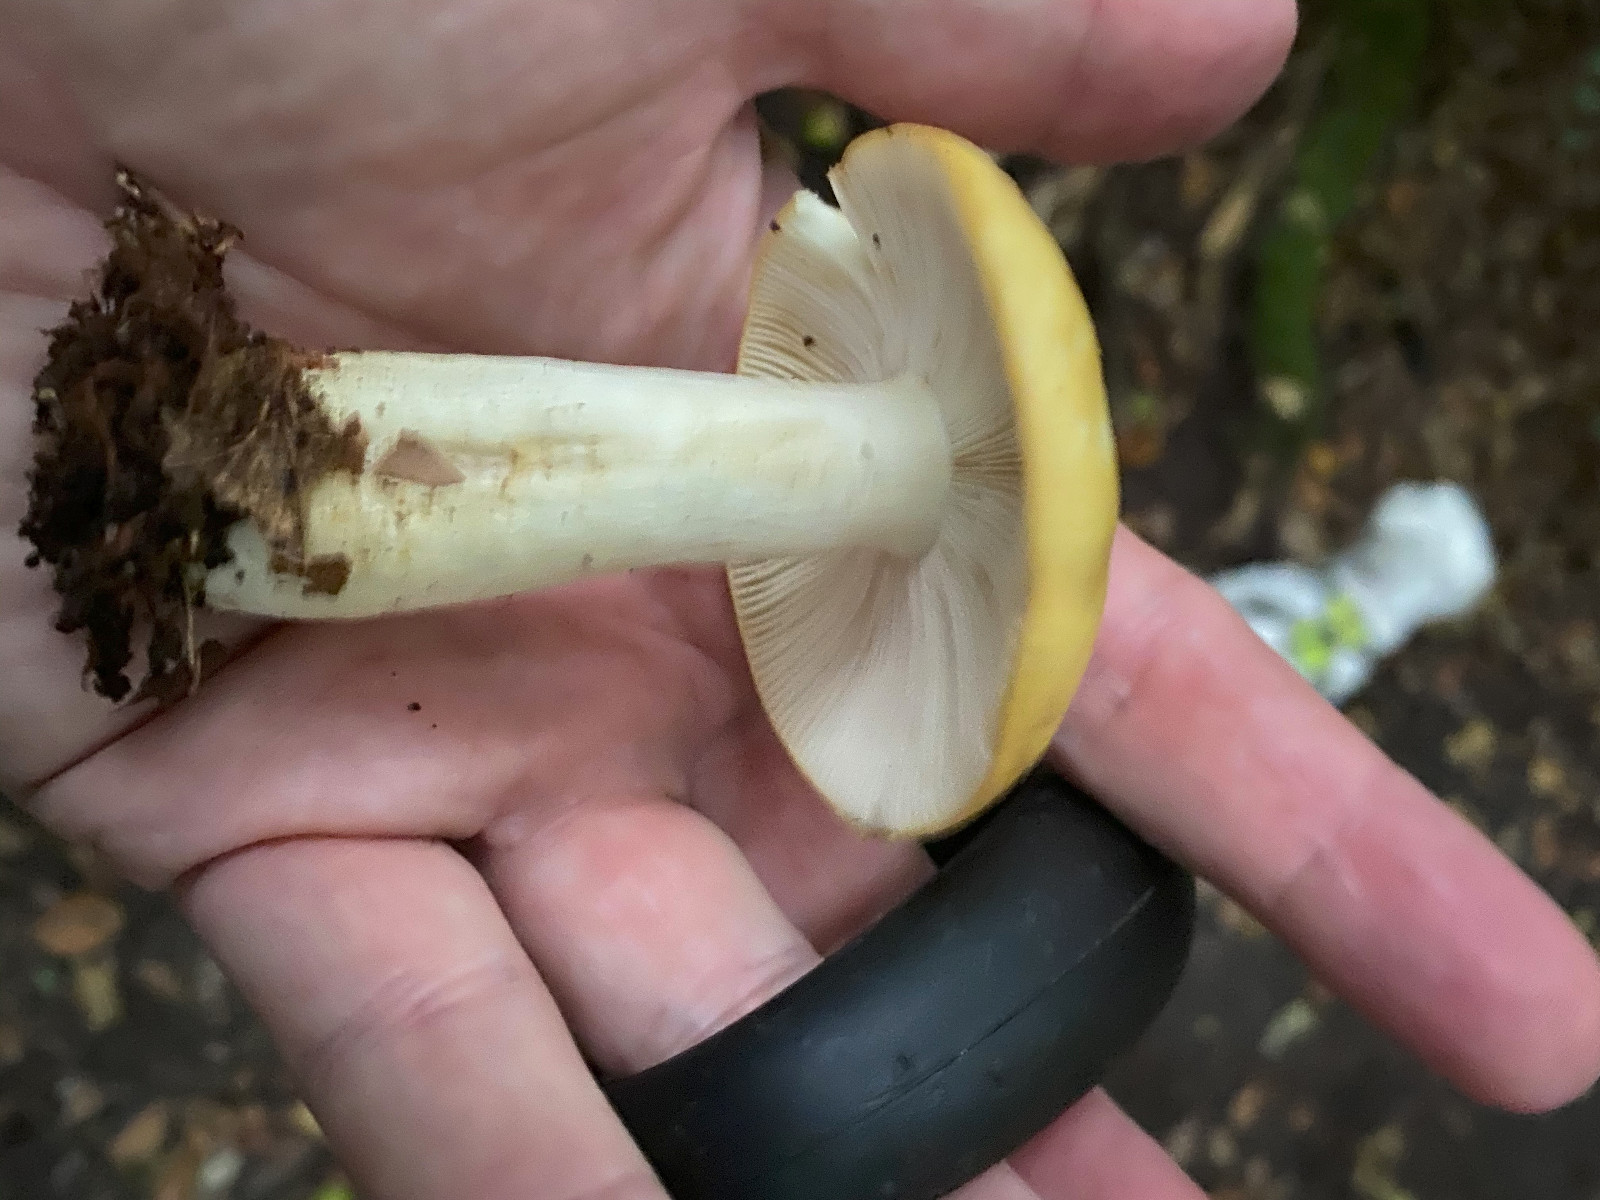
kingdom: Fungi
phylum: Basidiomycota
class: Agaricomycetes
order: Russulales
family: Russulaceae
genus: Russula
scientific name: Russula ochroleuca
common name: okkergul skørhat
